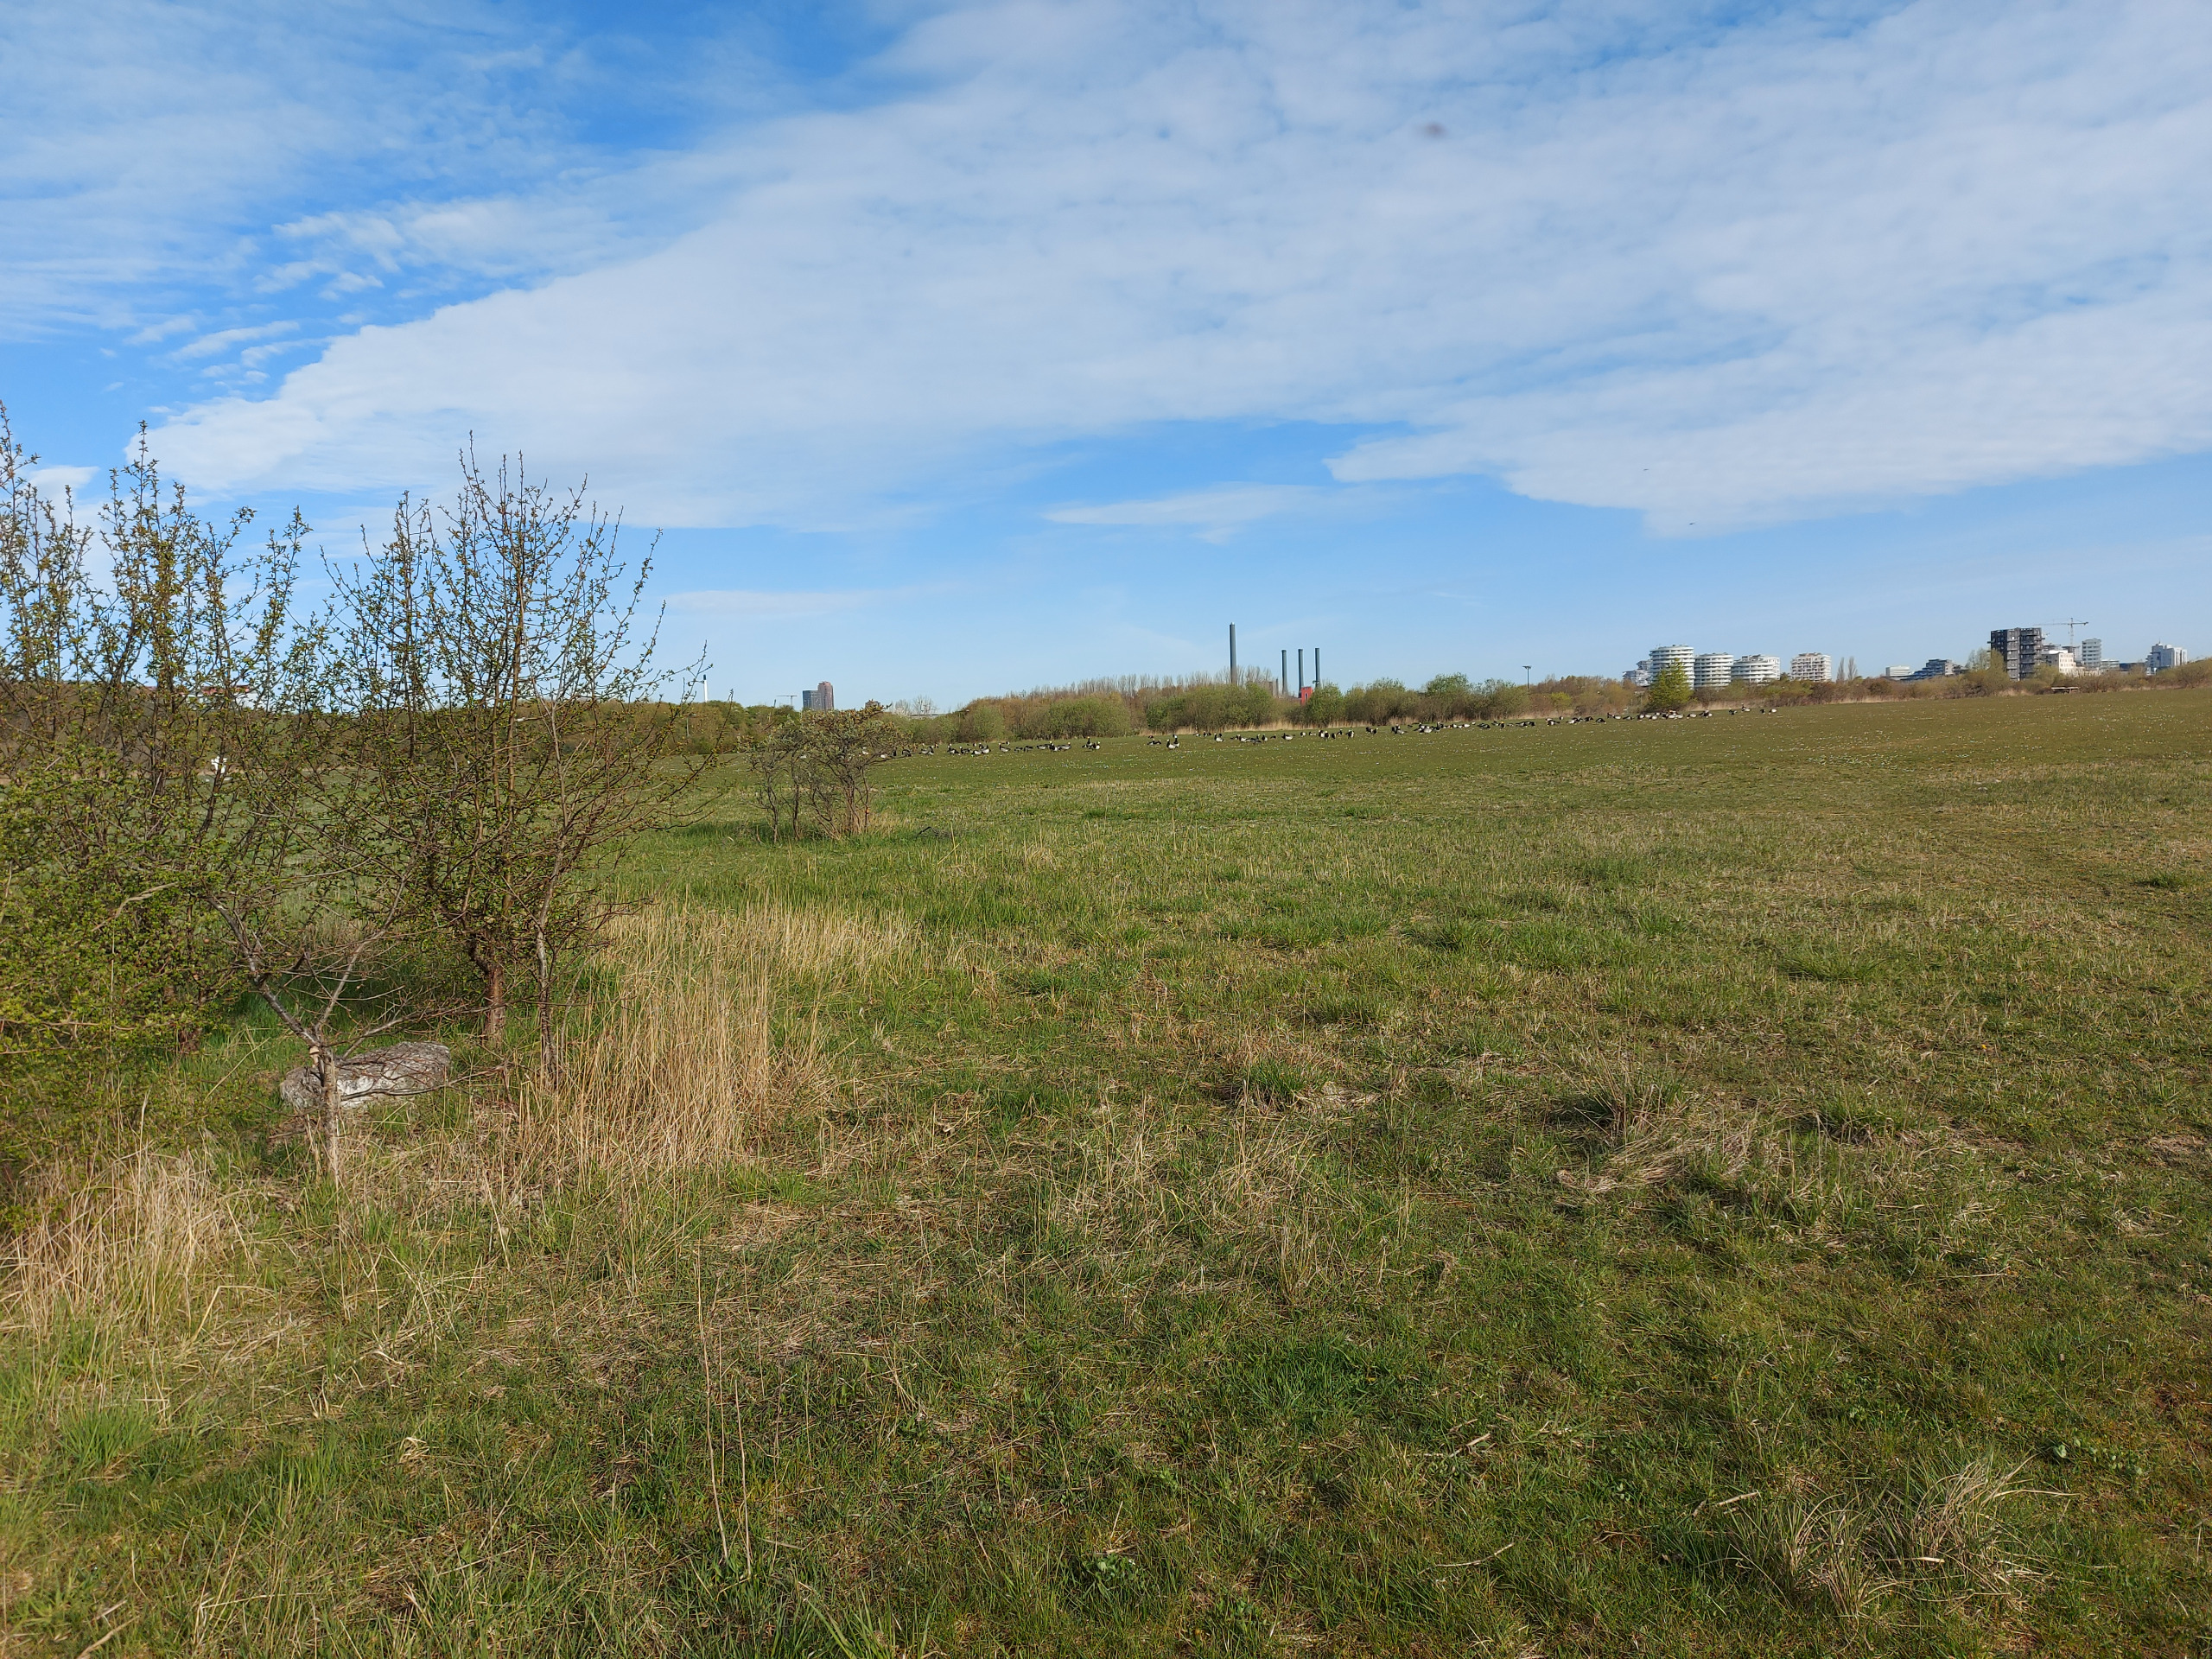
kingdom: Animalia
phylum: Chordata
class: Aves
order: Anseriformes
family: Anatidae
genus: Branta
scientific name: Branta leucopsis
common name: Bramgås
